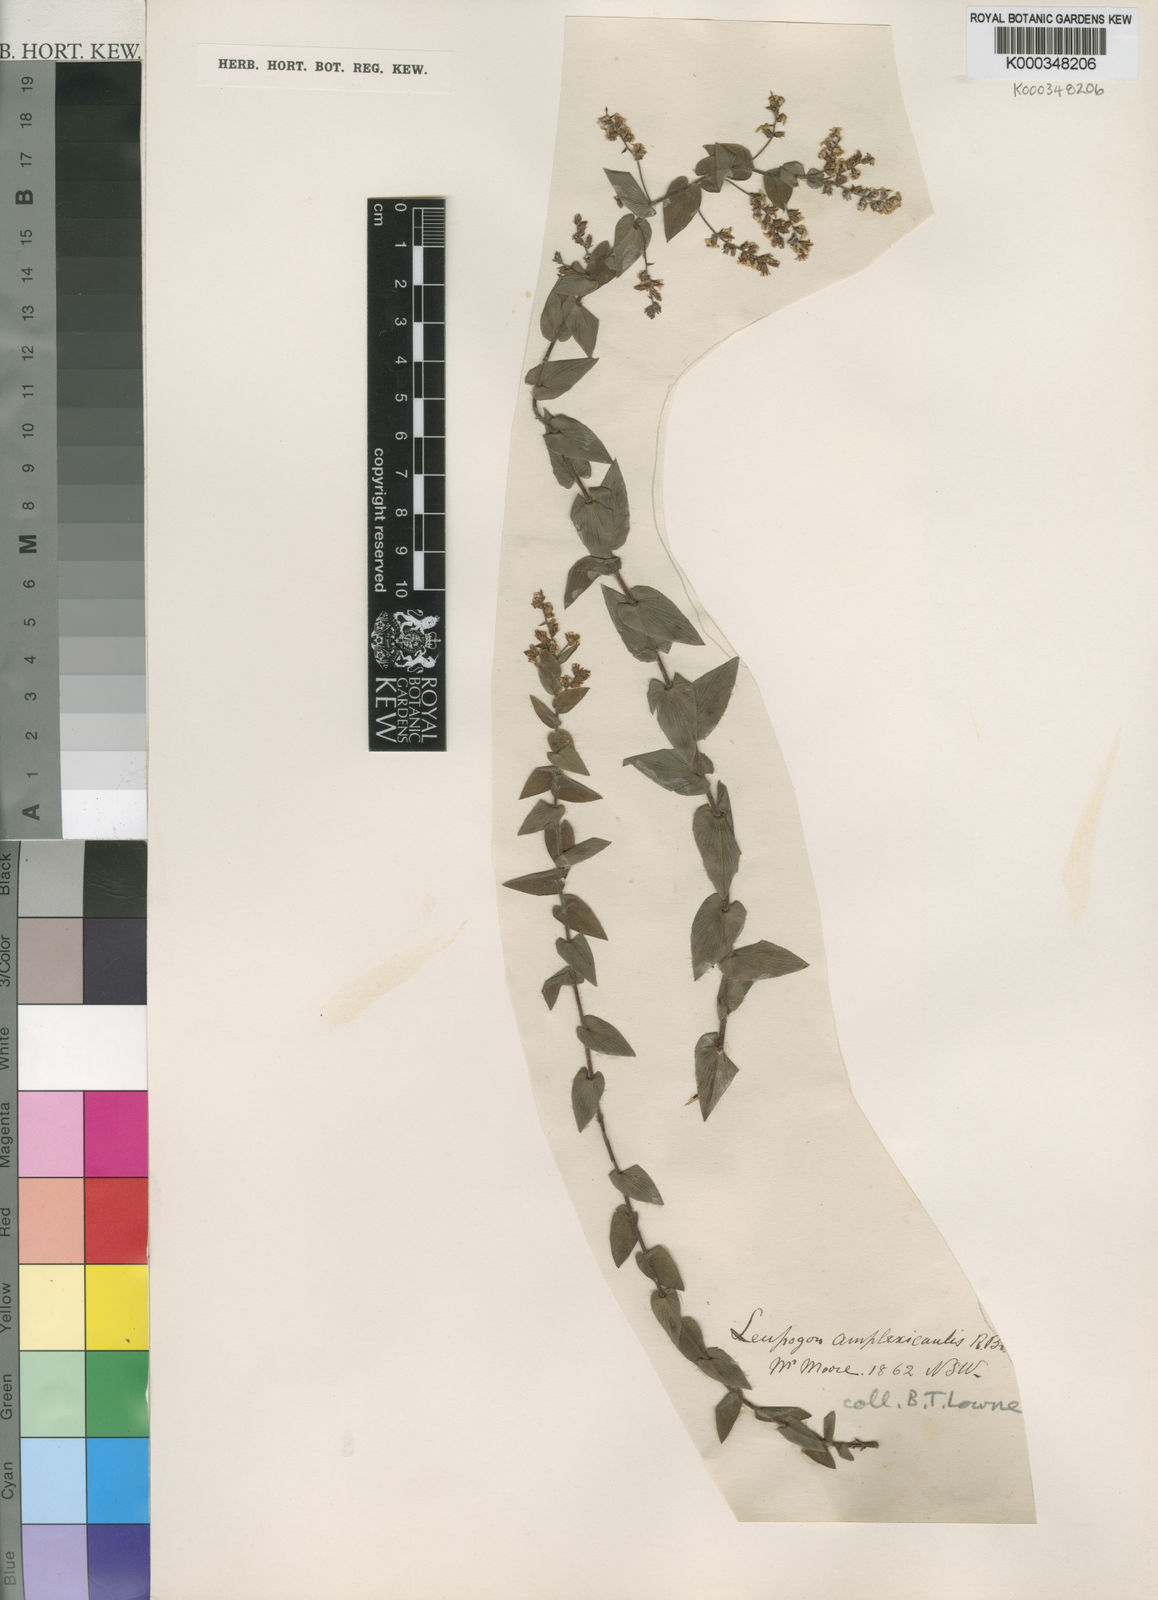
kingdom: Plantae
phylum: Tracheophyta
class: Magnoliopsida
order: Ericales
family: Ericaceae
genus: Leucopogon
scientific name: Leucopogon amplexicaulis
